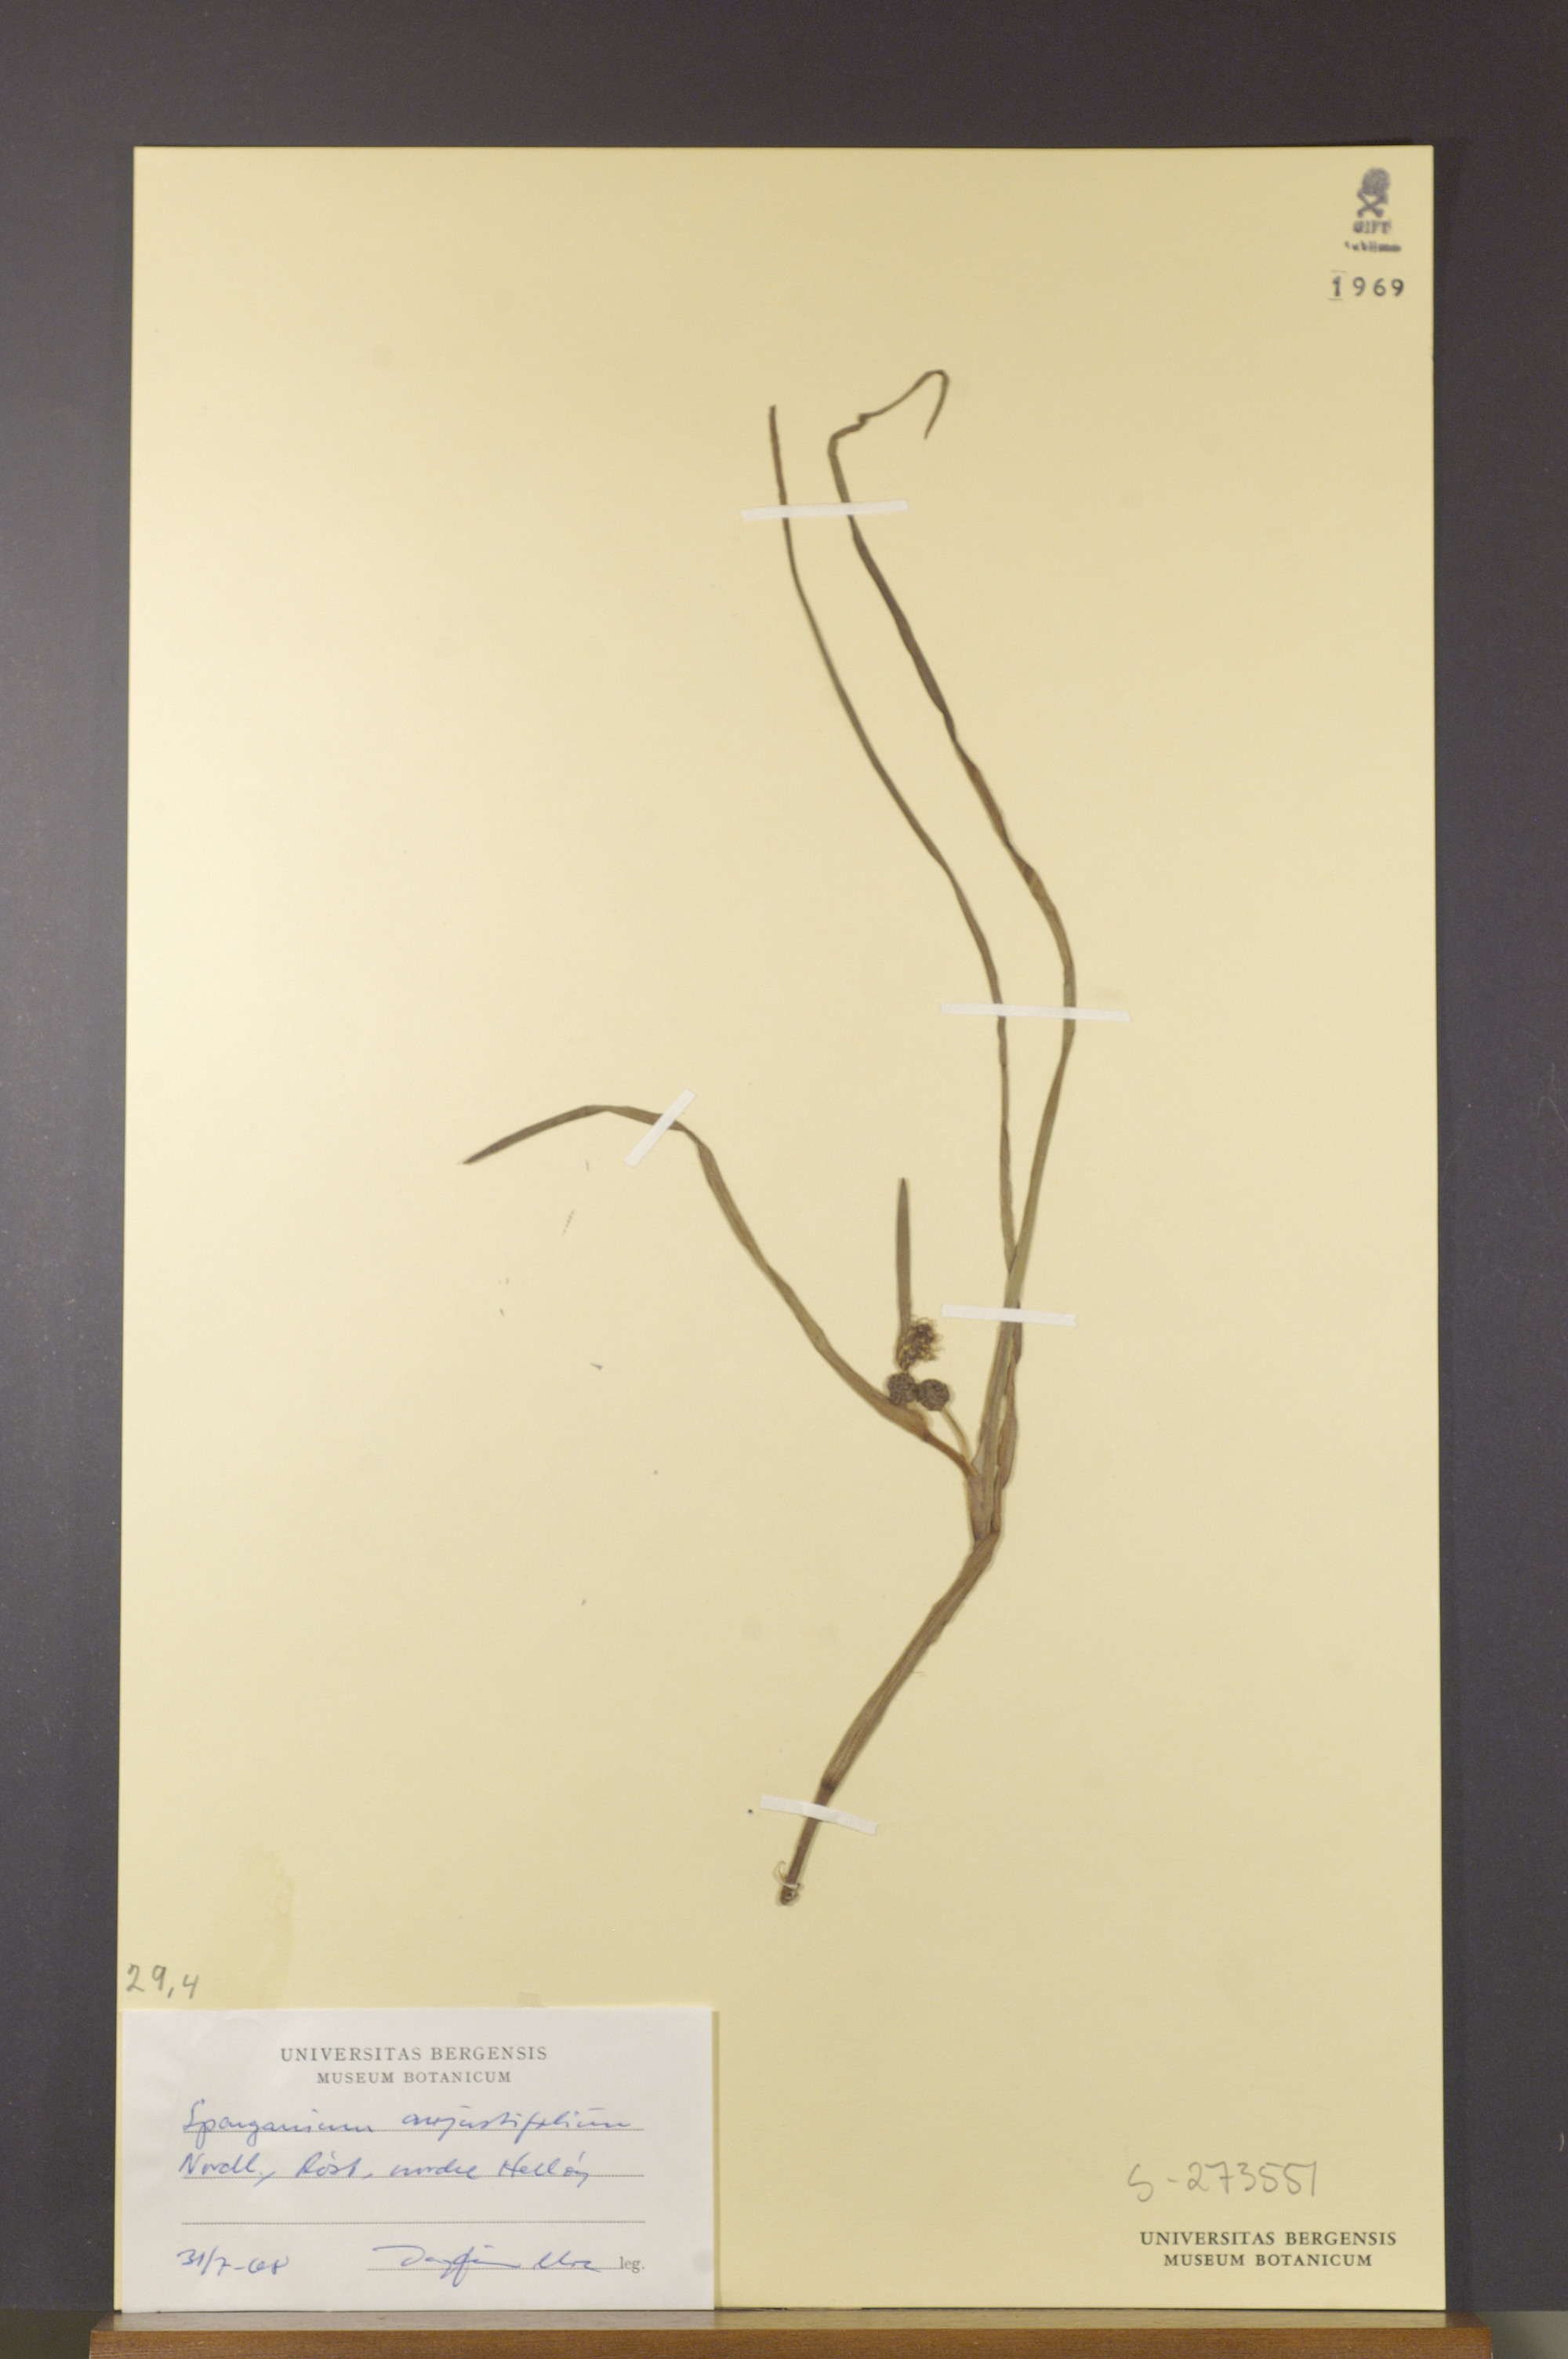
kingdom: Plantae
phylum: Tracheophyta
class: Liliopsida
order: Poales
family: Typhaceae
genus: Sparganium
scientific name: Sparganium angustifolium
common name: Floating bur-reed
